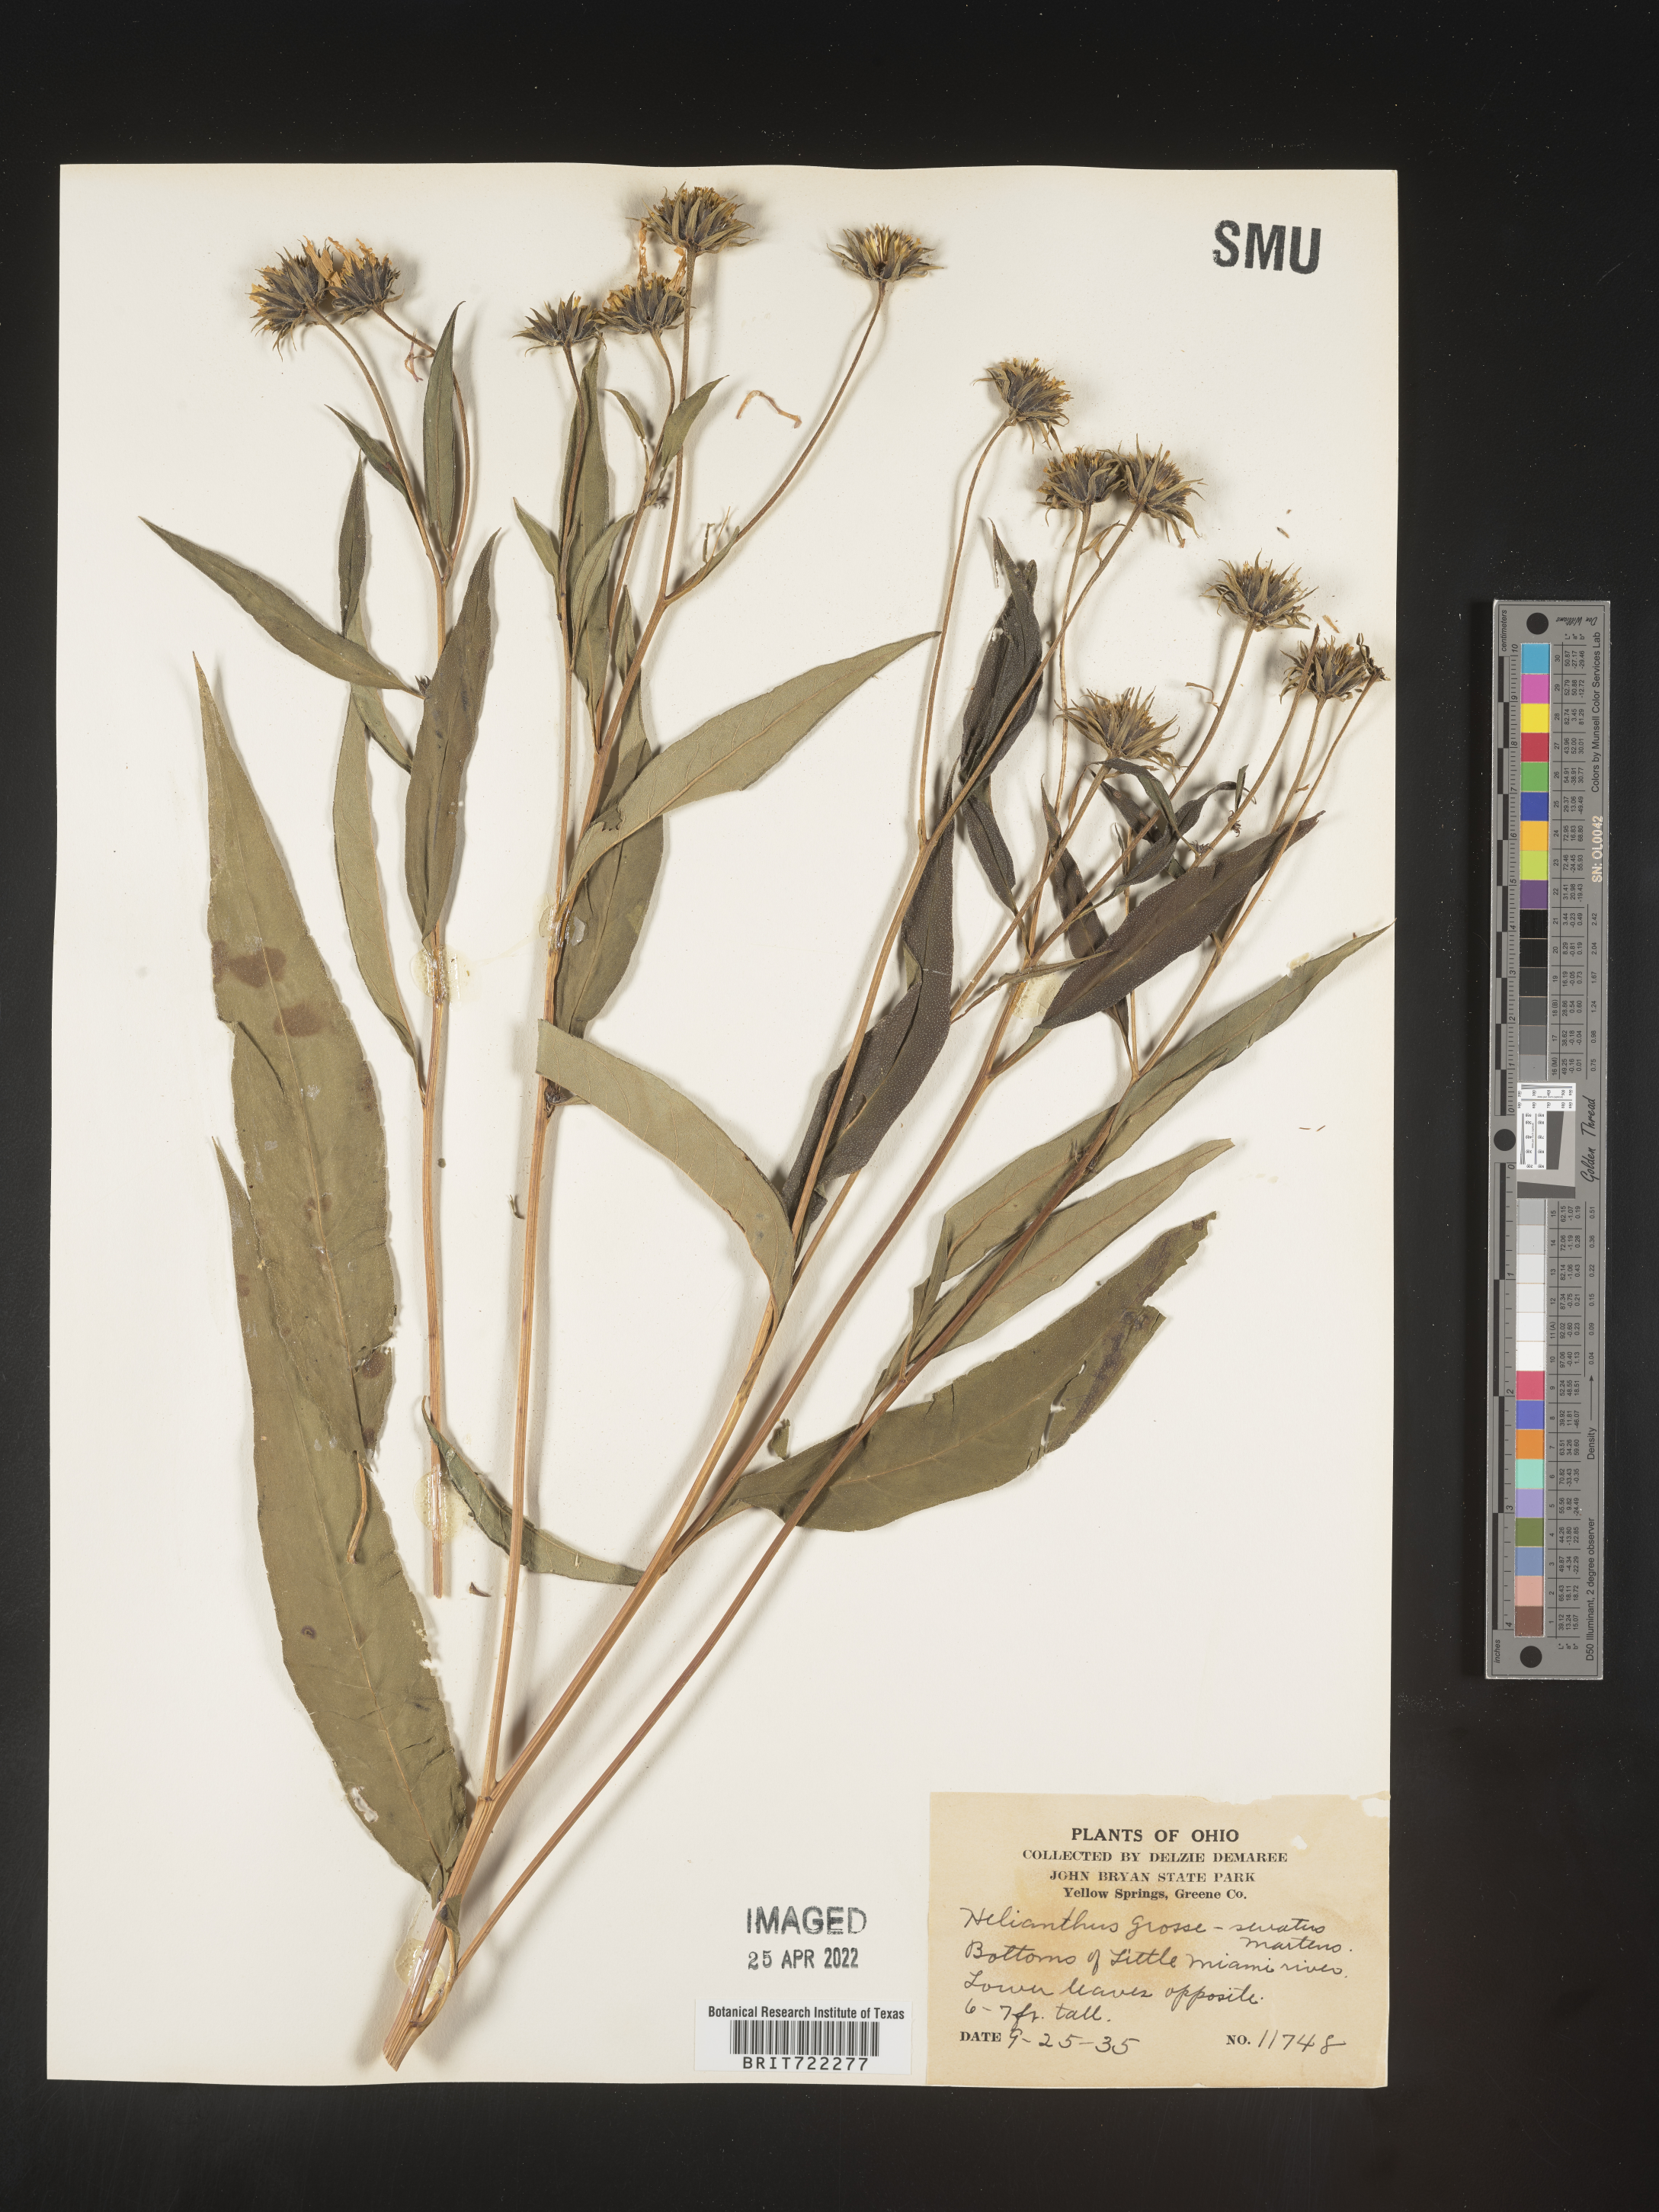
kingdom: Plantae
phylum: Tracheophyta
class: Magnoliopsida
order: Asterales
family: Asteraceae
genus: Helianthus
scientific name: Helianthus grosseserratus
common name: Sawtooth sunflower
